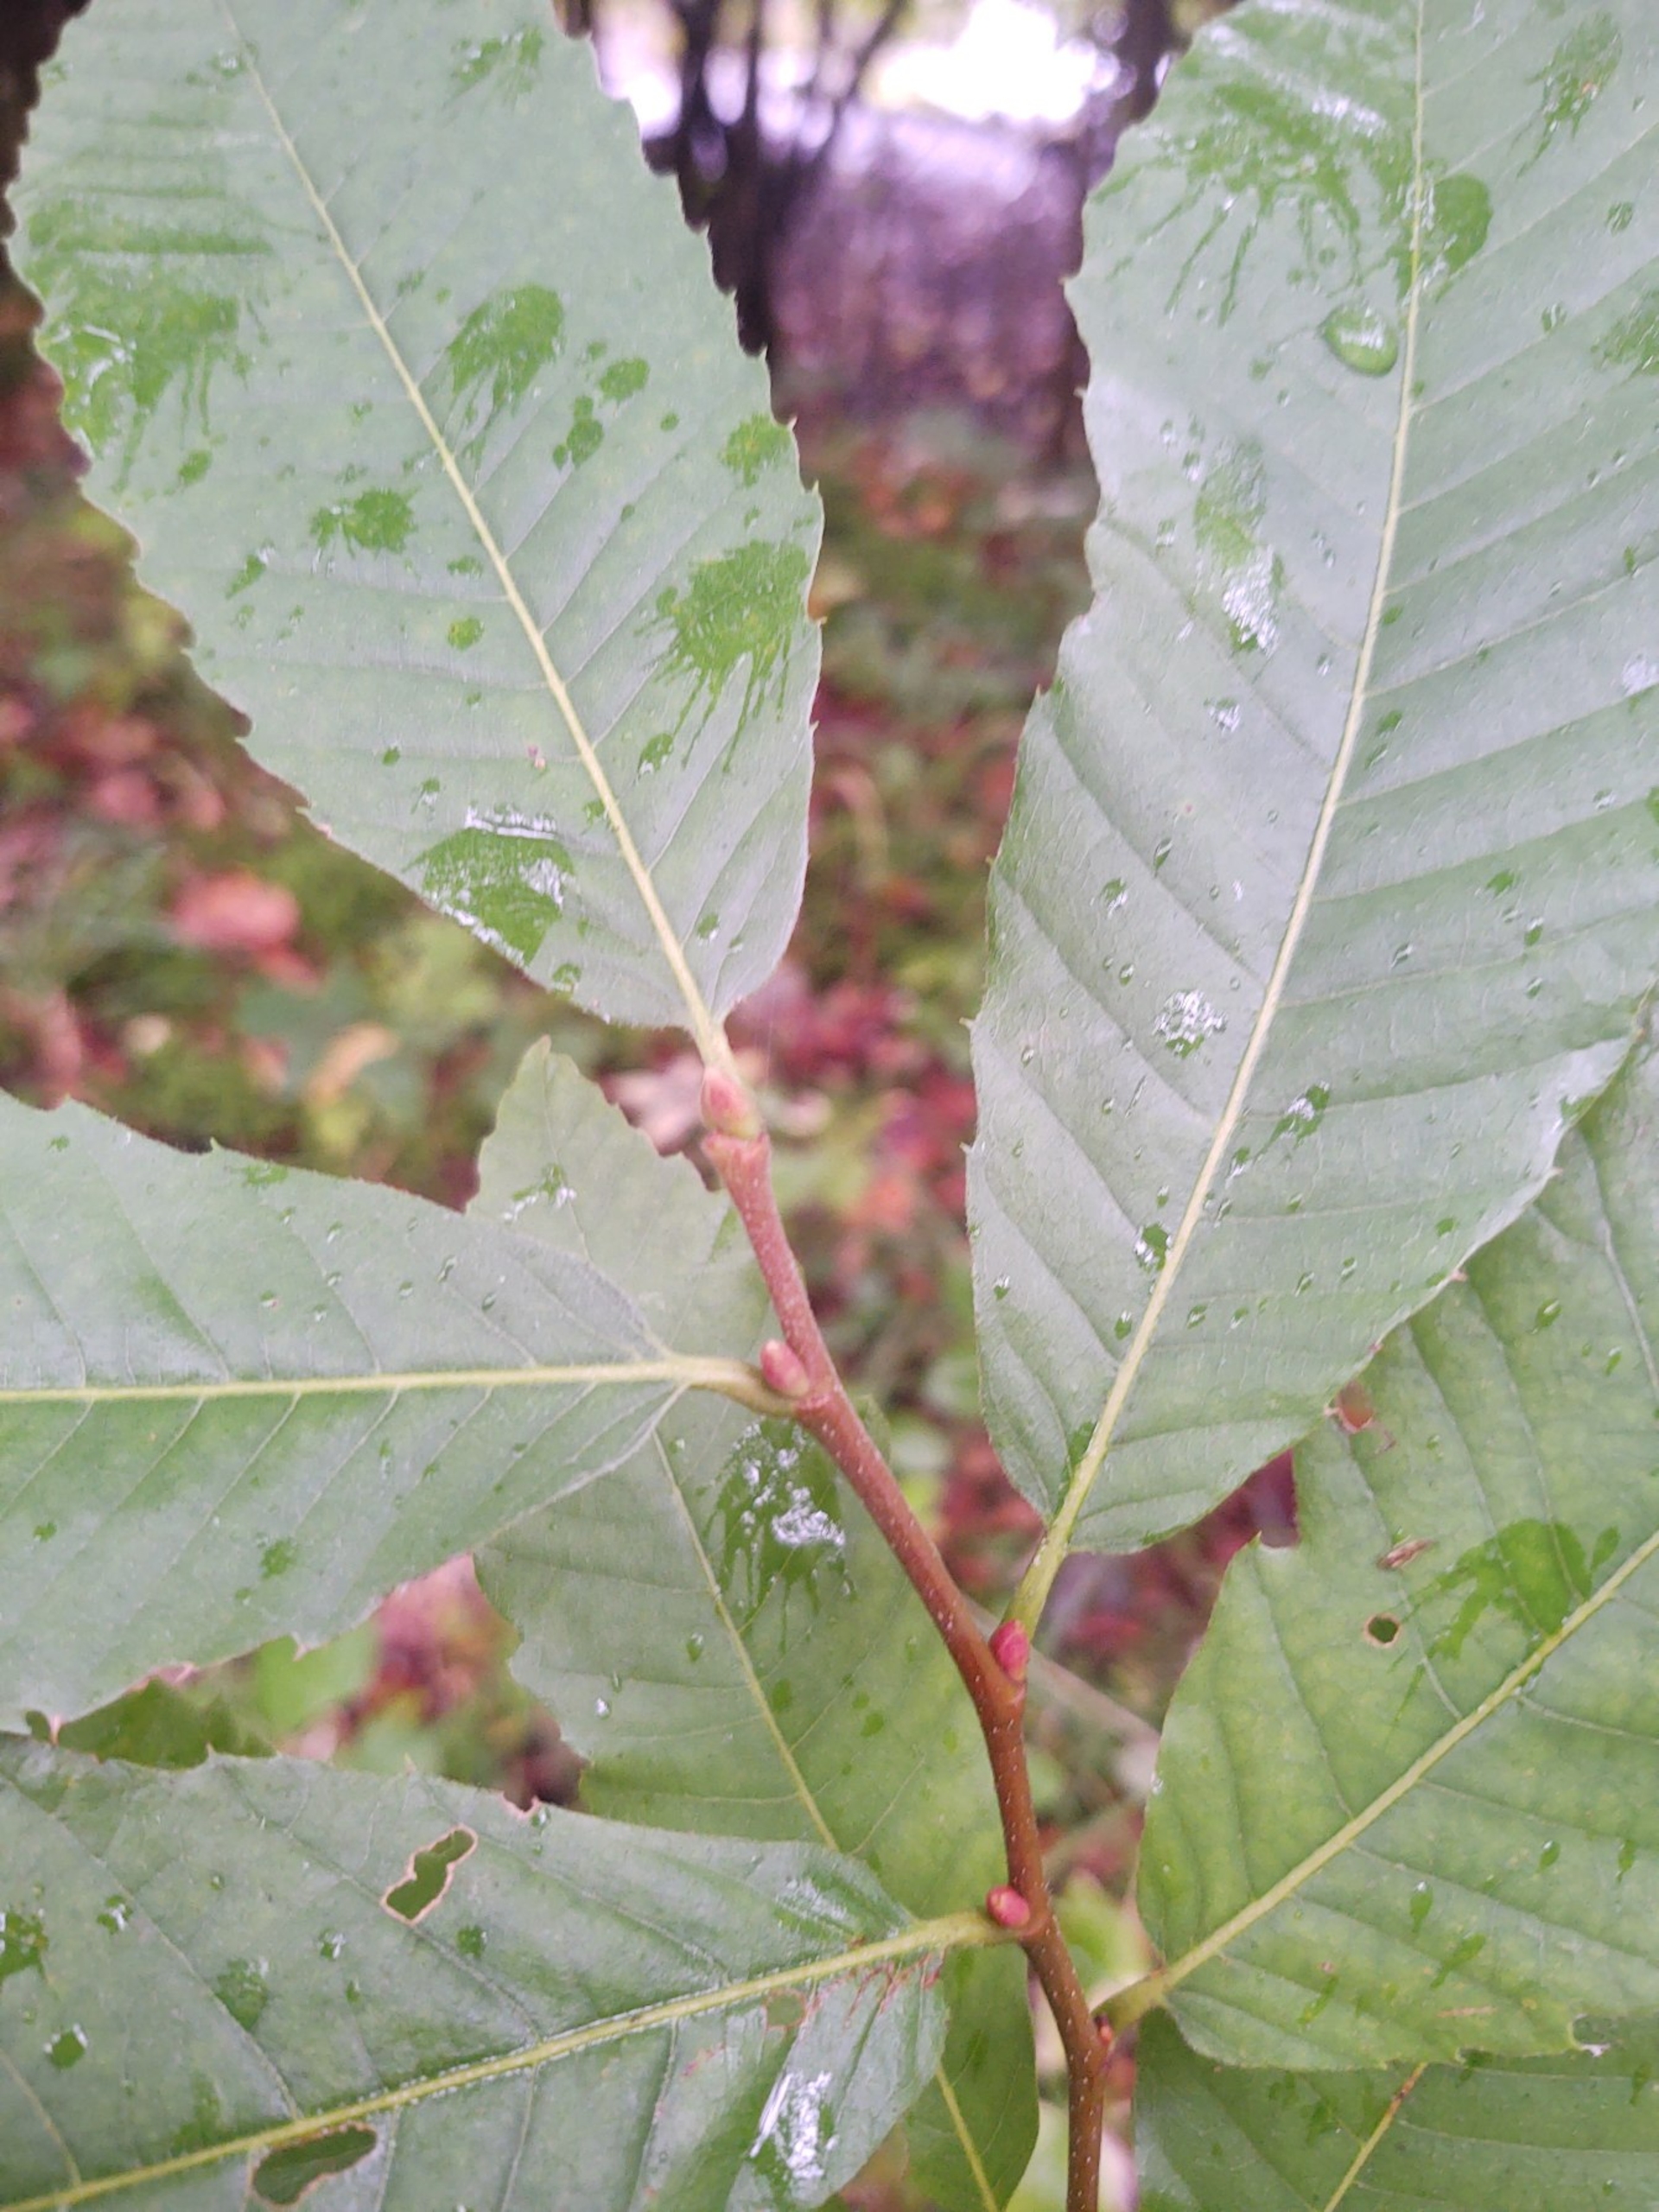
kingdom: Plantae
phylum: Tracheophyta
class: Magnoliopsida
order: Fagales
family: Fagaceae
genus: Castanea
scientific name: Castanea sativa
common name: Ægte kastanie
